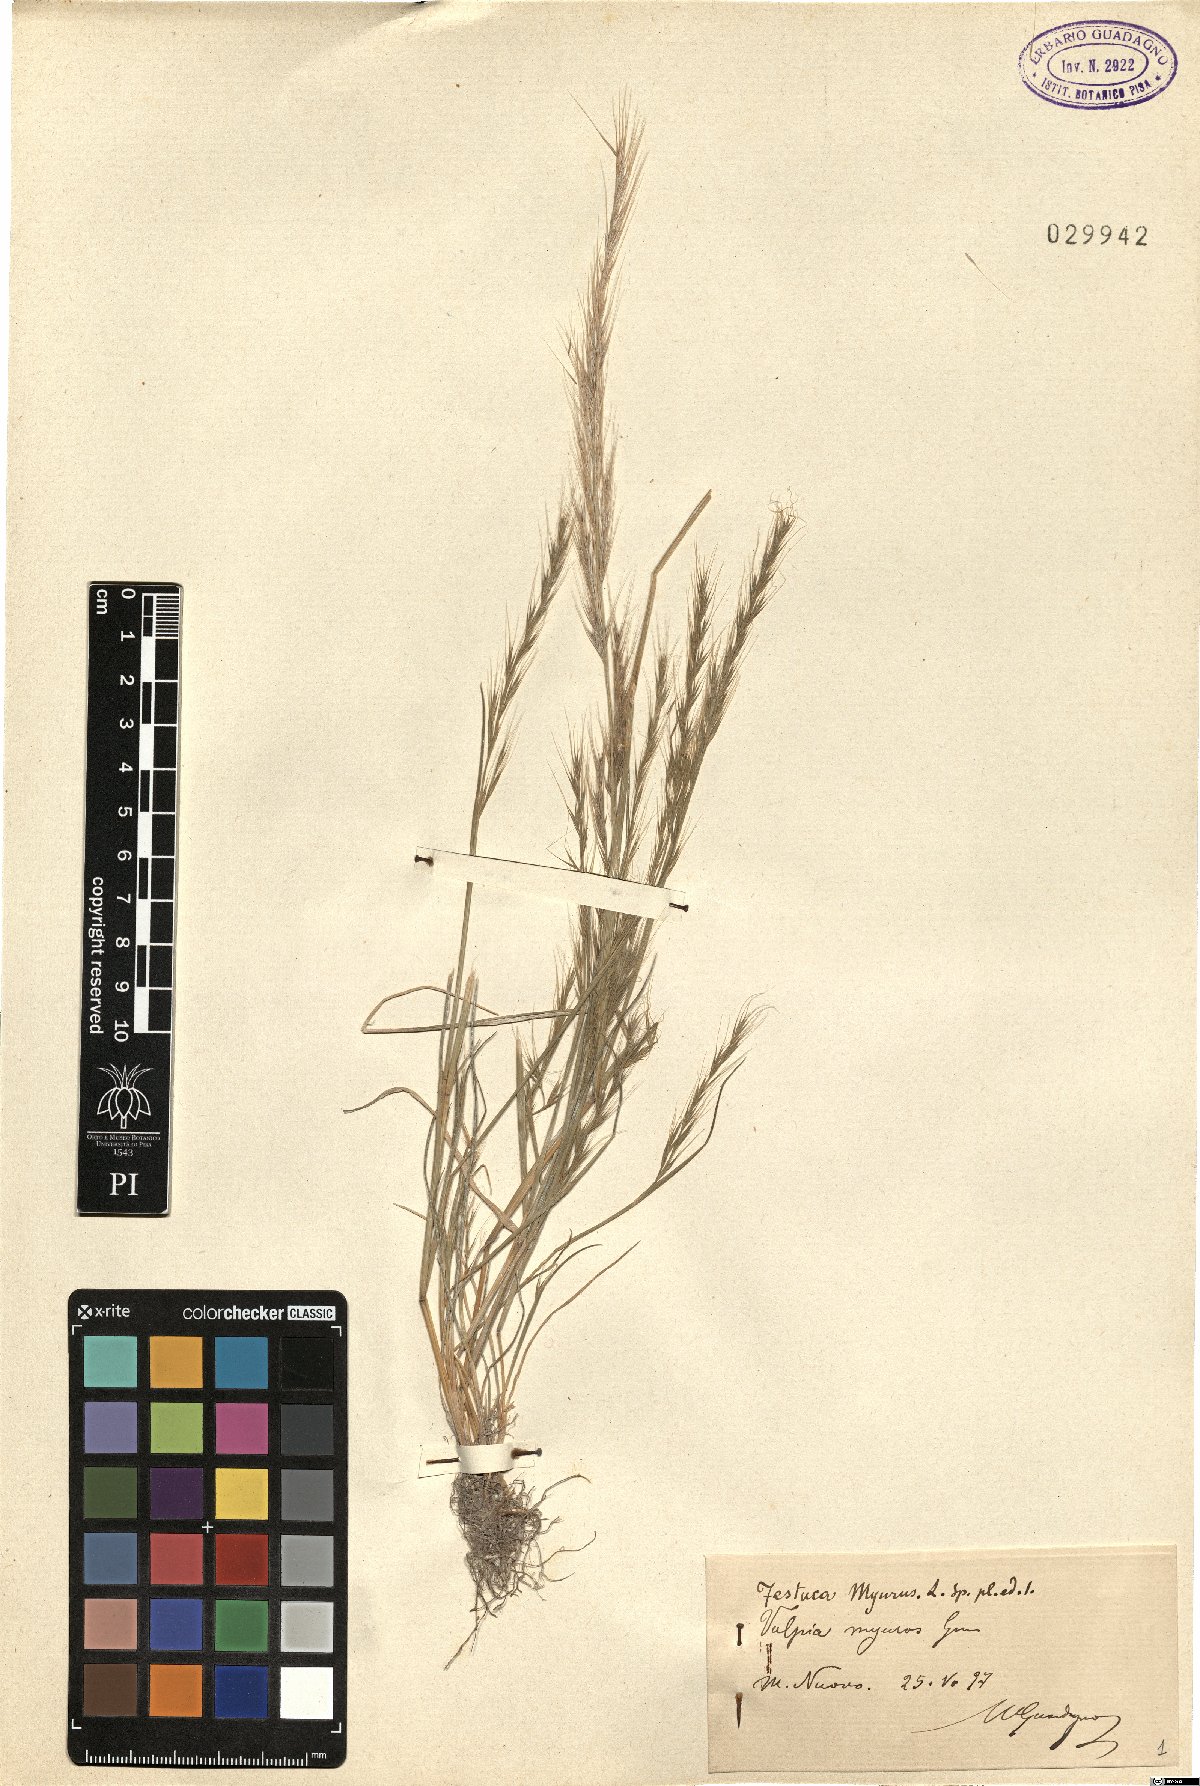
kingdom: Plantae
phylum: Tracheophyta
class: Liliopsida
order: Poales
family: Poaceae
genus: Festuca
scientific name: Festuca myuros
